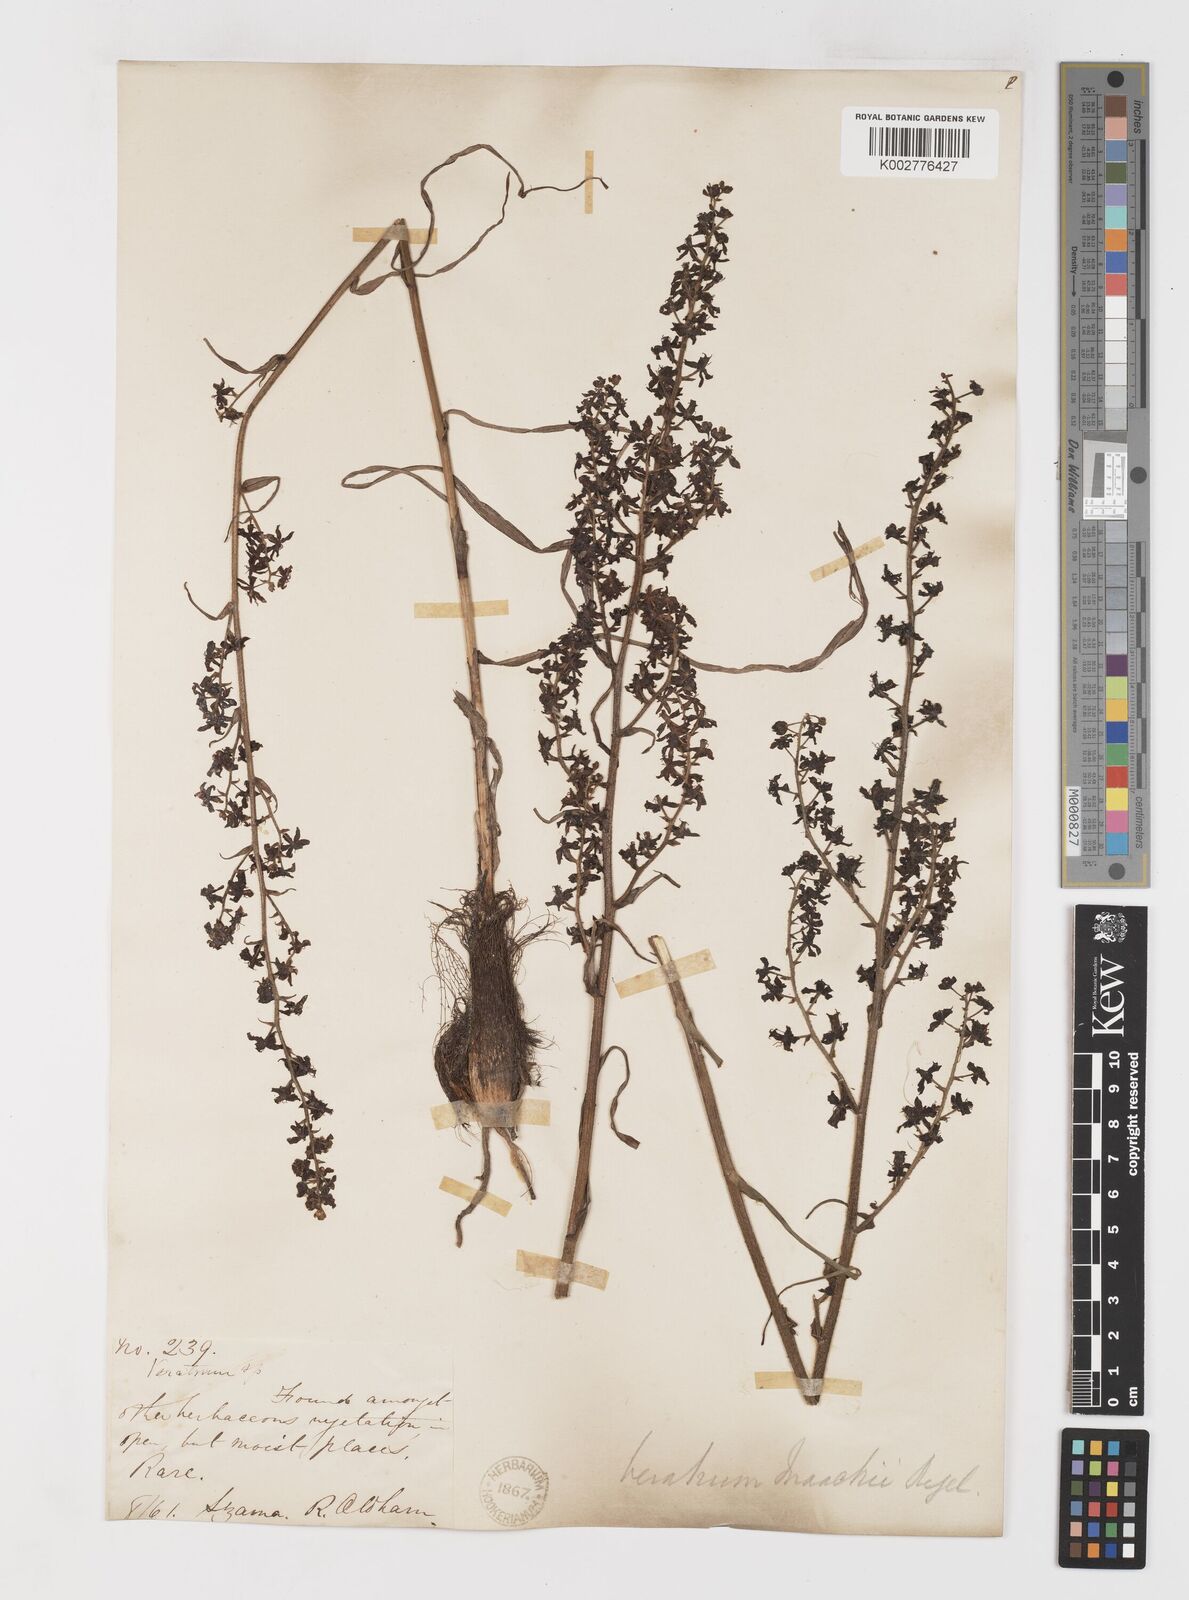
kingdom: Plantae
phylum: Tracheophyta
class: Liliopsida
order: Liliales
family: Melanthiaceae
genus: Veratrum
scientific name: Veratrum maackii
